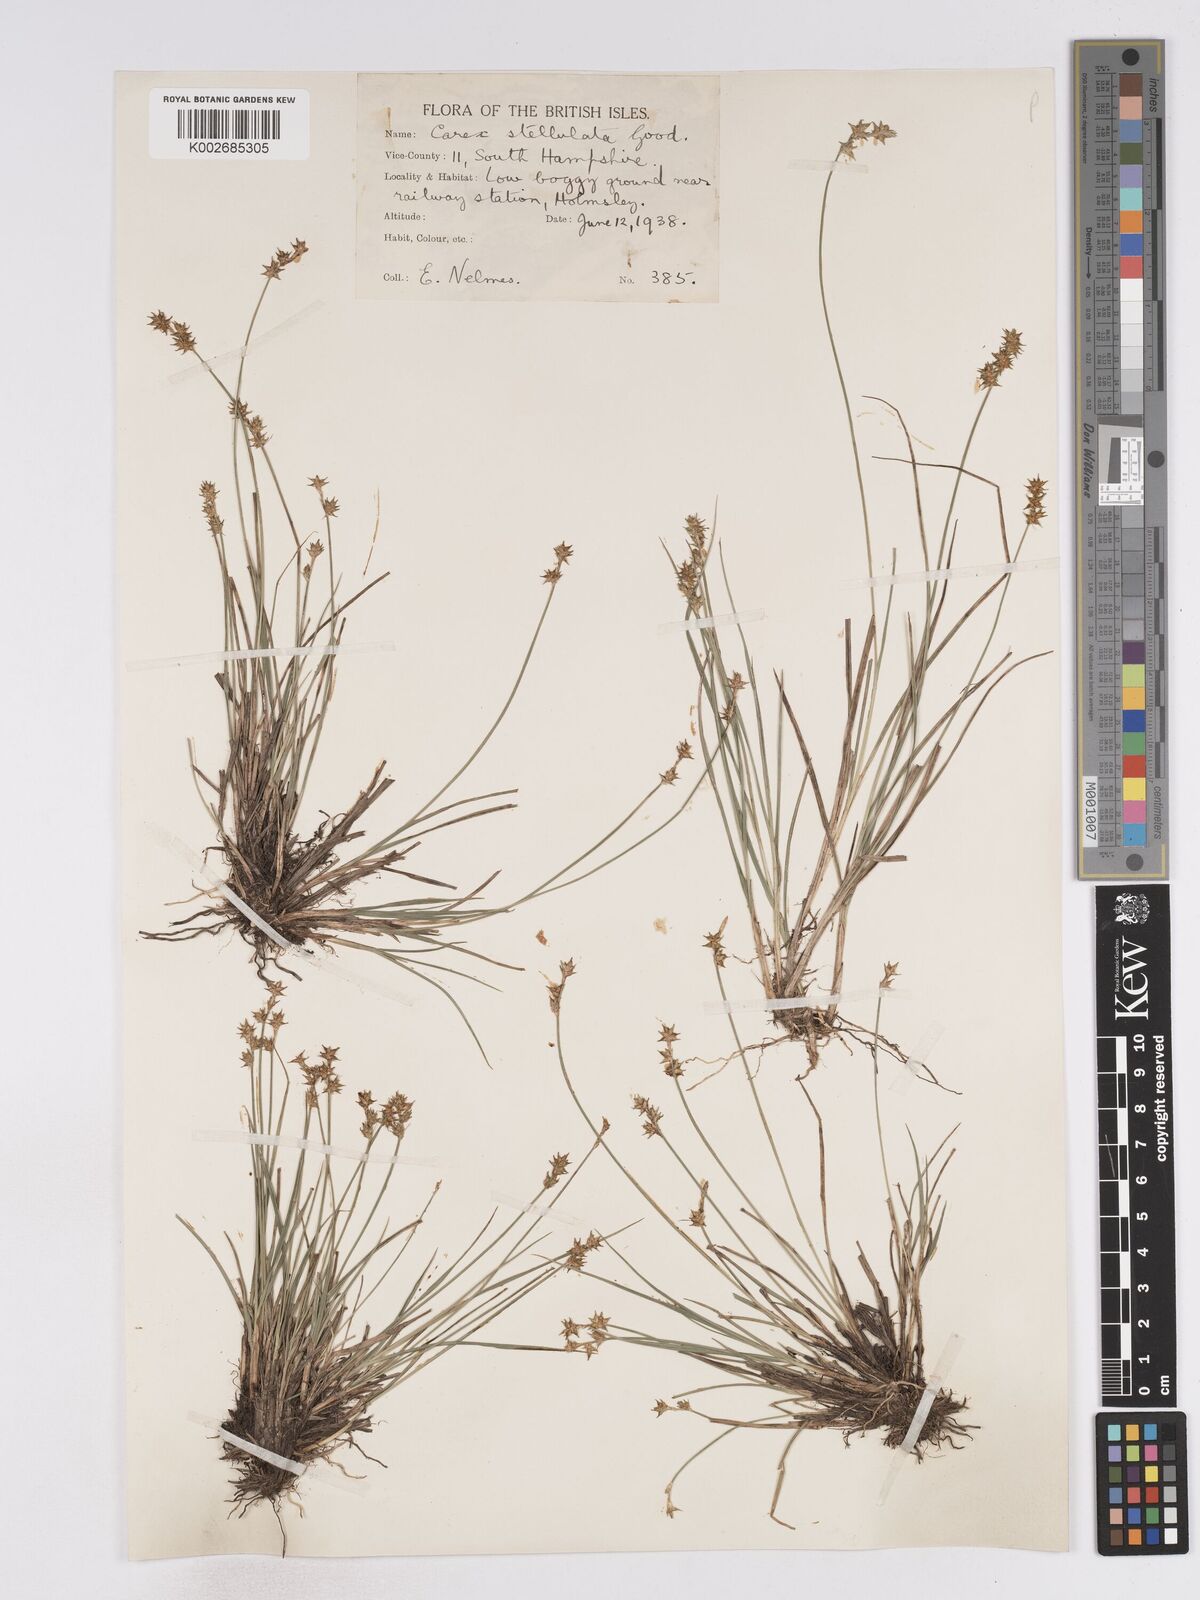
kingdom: Plantae
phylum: Tracheophyta
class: Liliopsida
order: Poales
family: Cyperaceae
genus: Carex
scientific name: Carex echinata
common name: Star sedge
